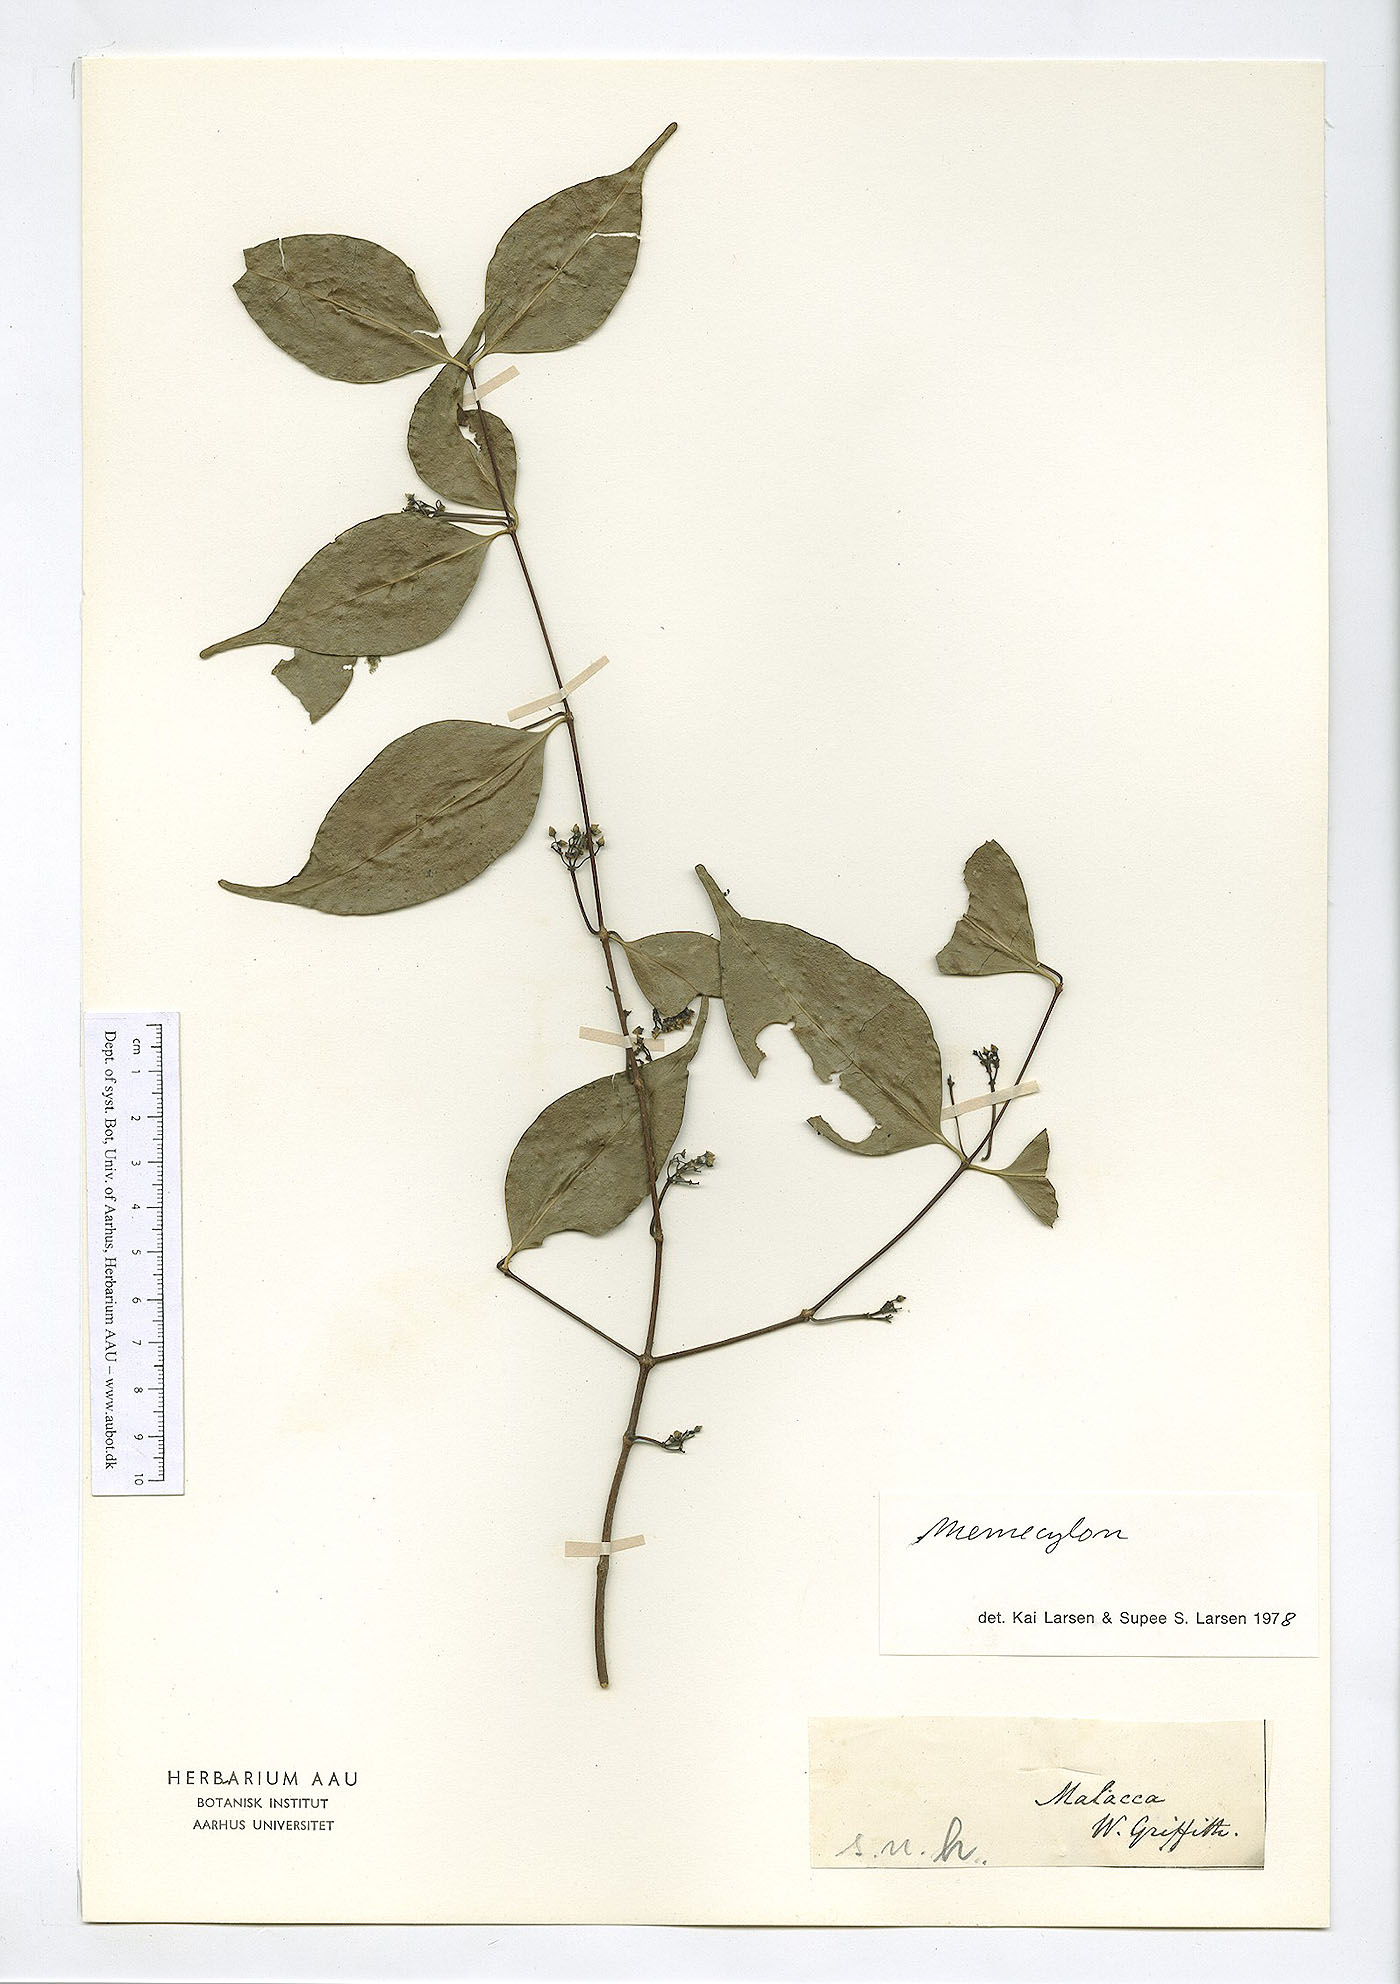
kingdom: Plantae
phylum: Tracheophyta
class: Magnoliopsida
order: Myrtales
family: Melastomataceae
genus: Memecylon
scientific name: Memecylon
